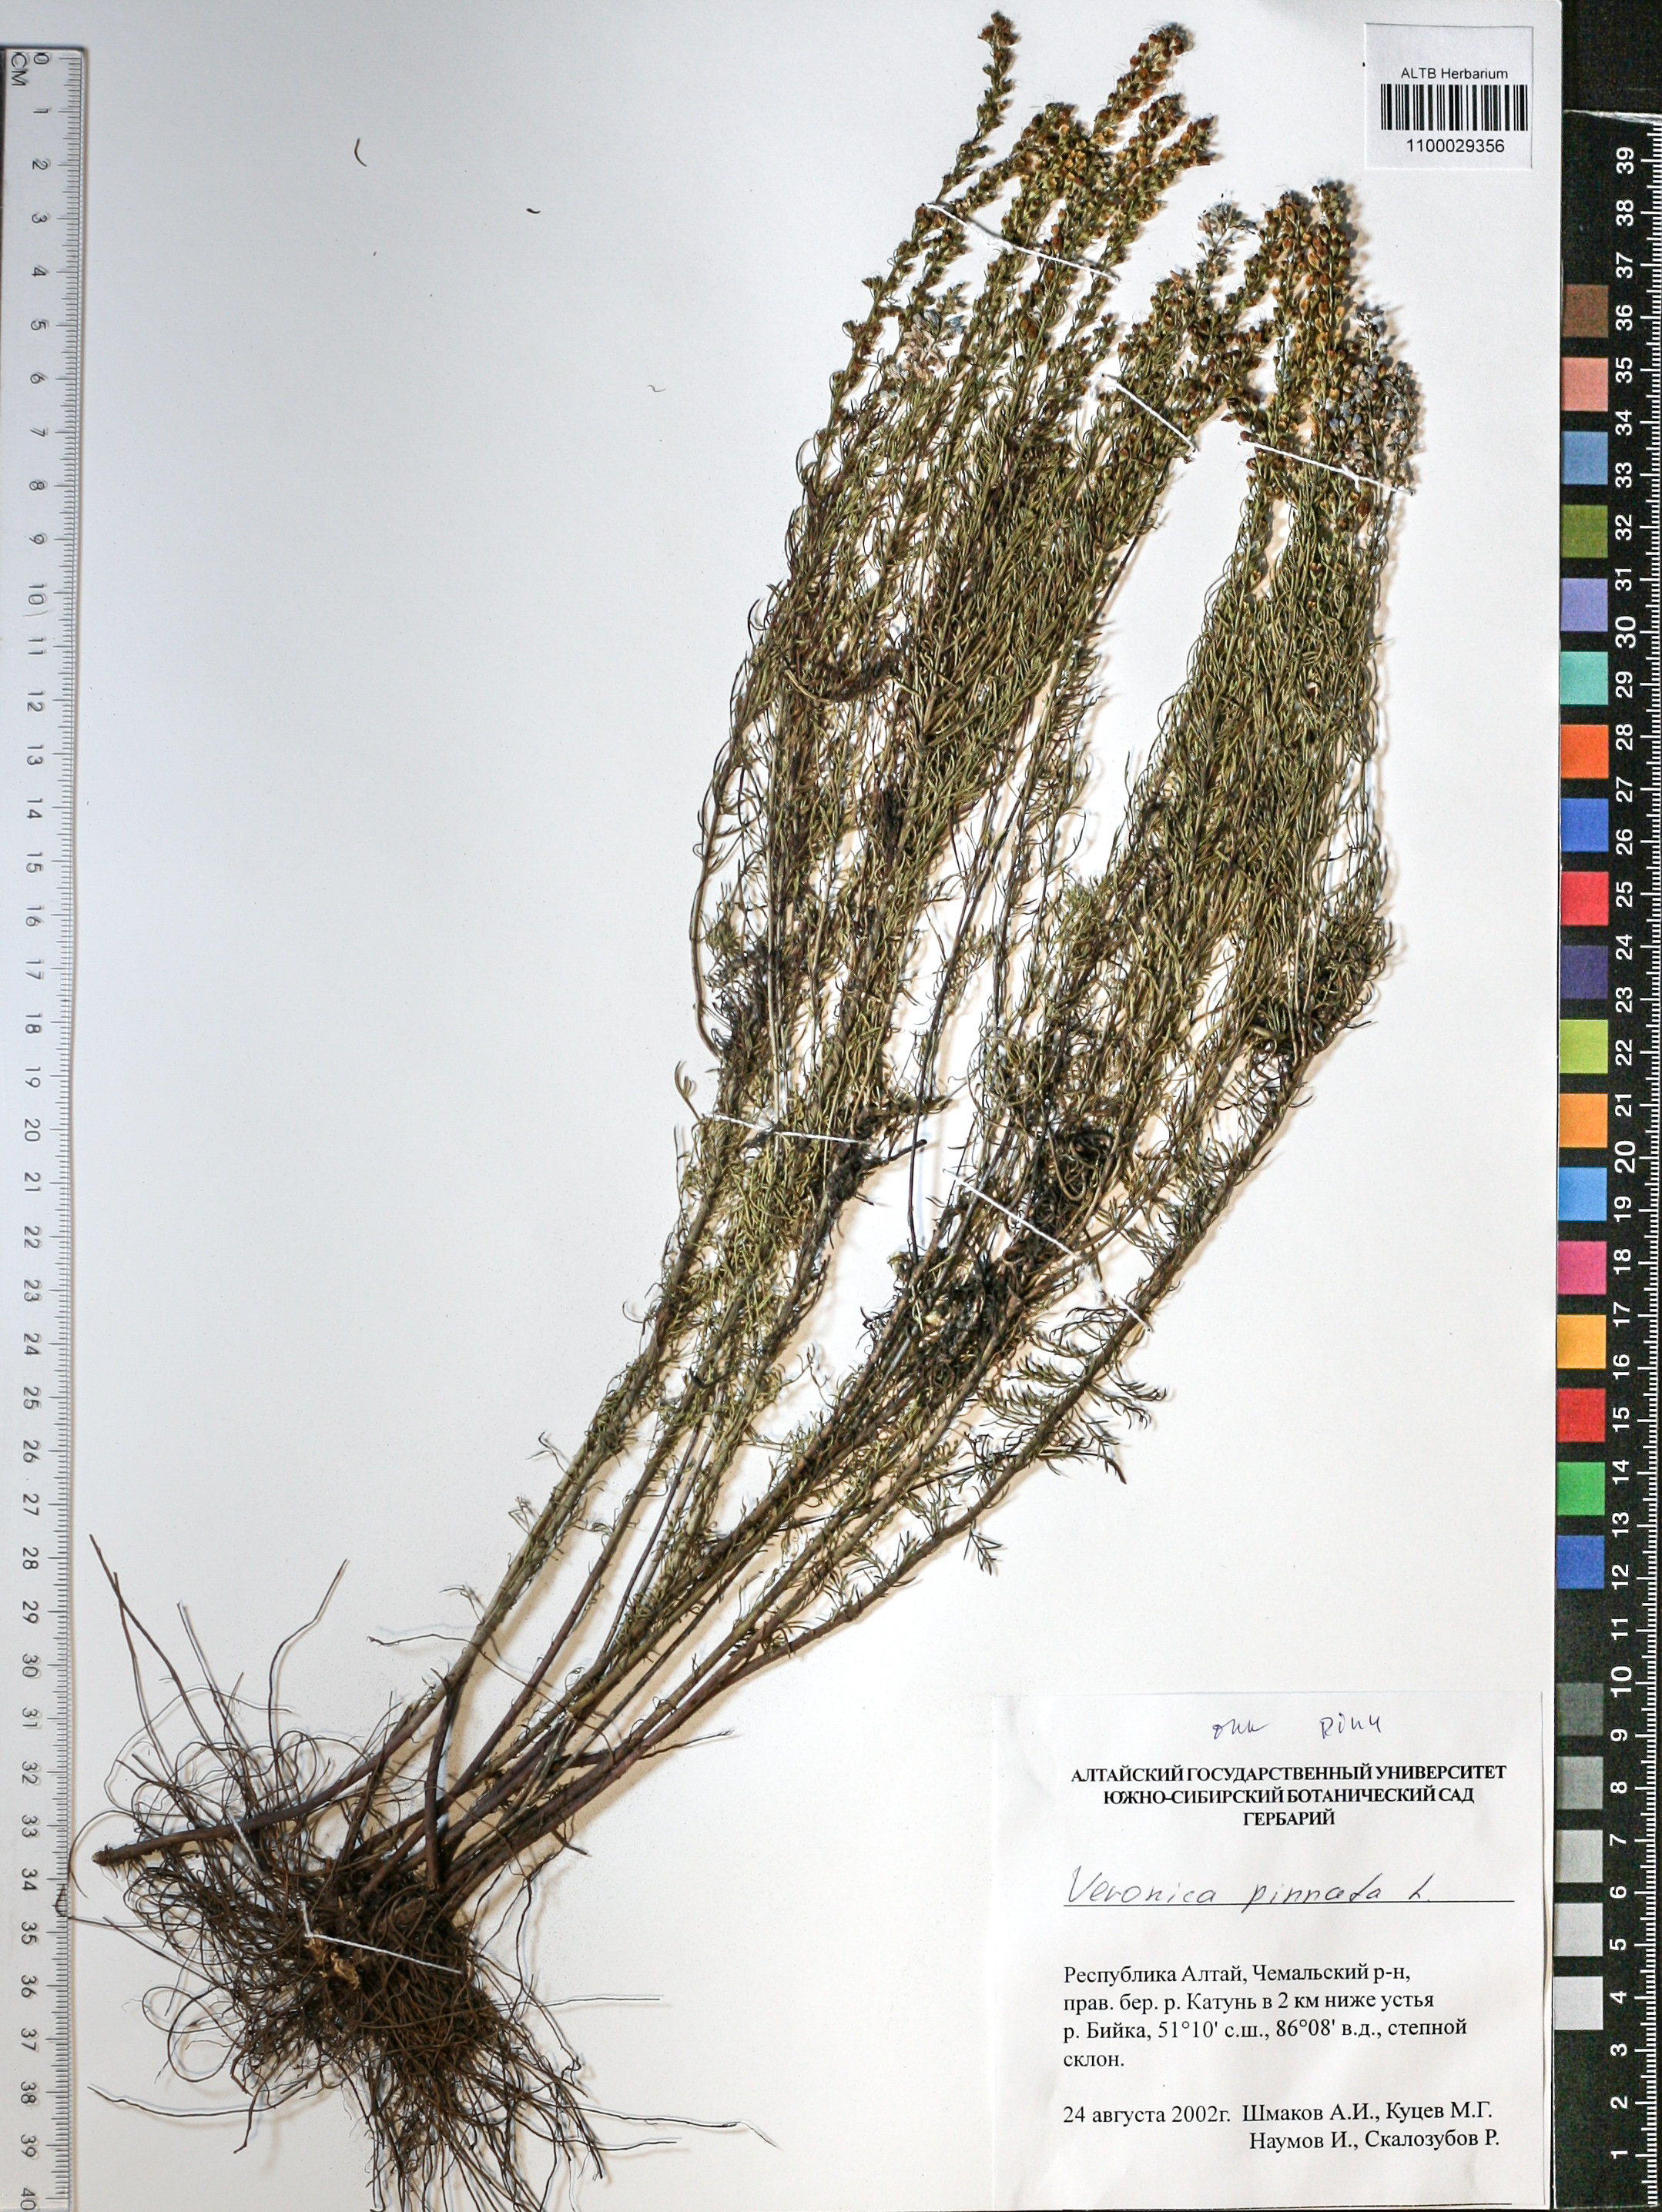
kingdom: Plantae
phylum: Tracheophyta
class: Magnoliopsida
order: Lamiales
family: Plantaginaceae
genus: Veronica
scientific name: Veronica pinnata
